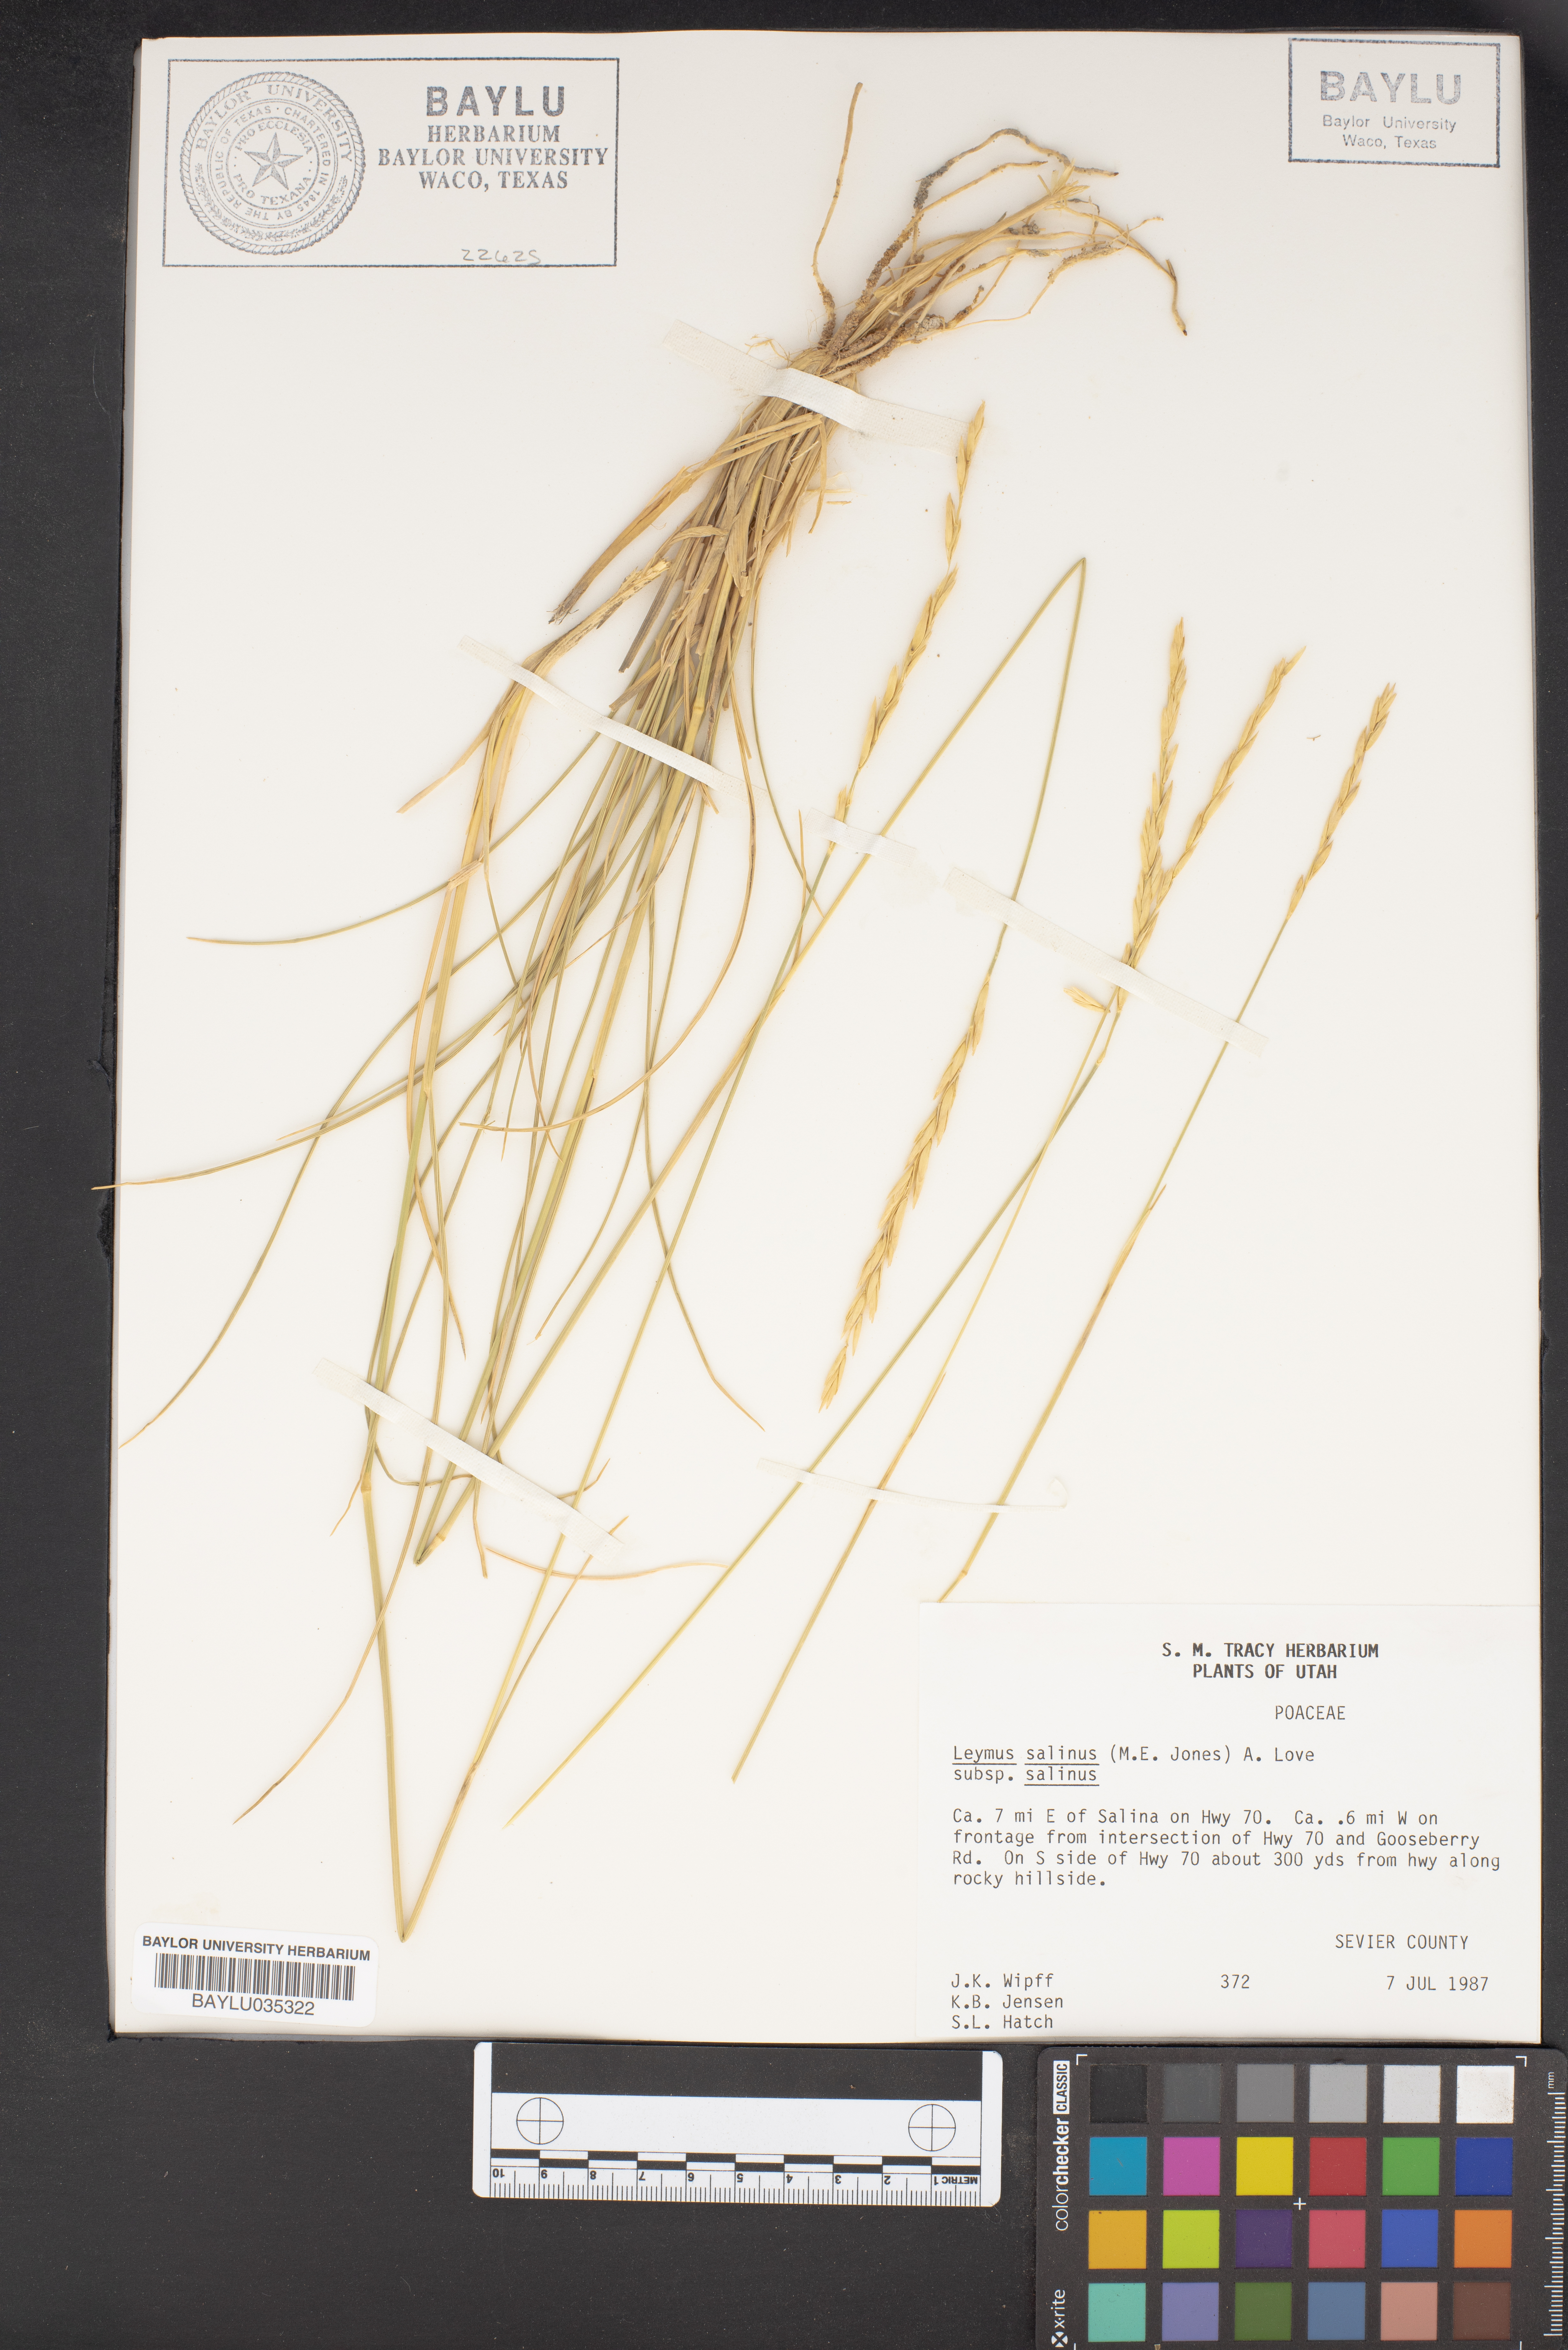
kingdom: Plantae
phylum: Tracheophyta
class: Liliopsida
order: Poales
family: Poaceae
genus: Leymus
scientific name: Leymus salina
